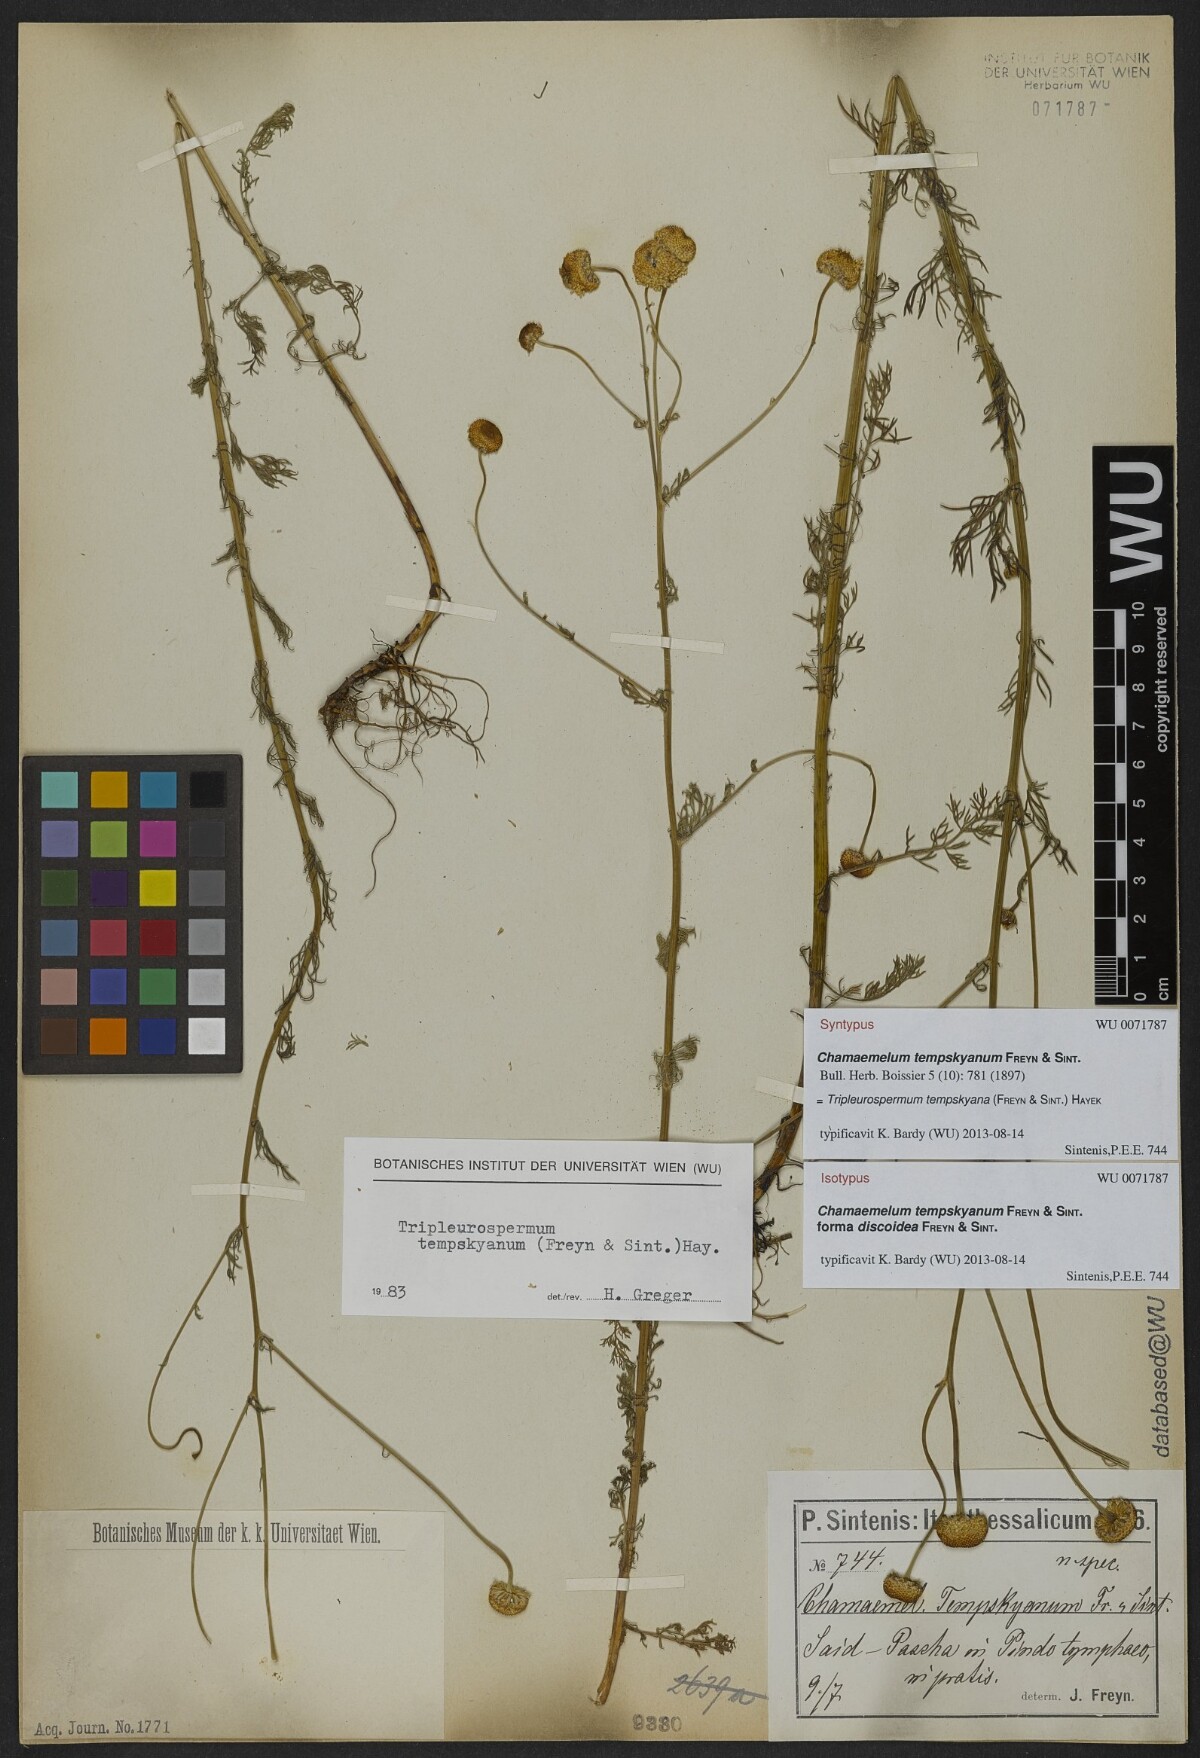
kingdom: Plantae
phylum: Tracheophyta
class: Magnoliopsida
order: Asterales
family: Asteraceae
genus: Tripleurospermum
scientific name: Tripleurospermum tempskyanum
